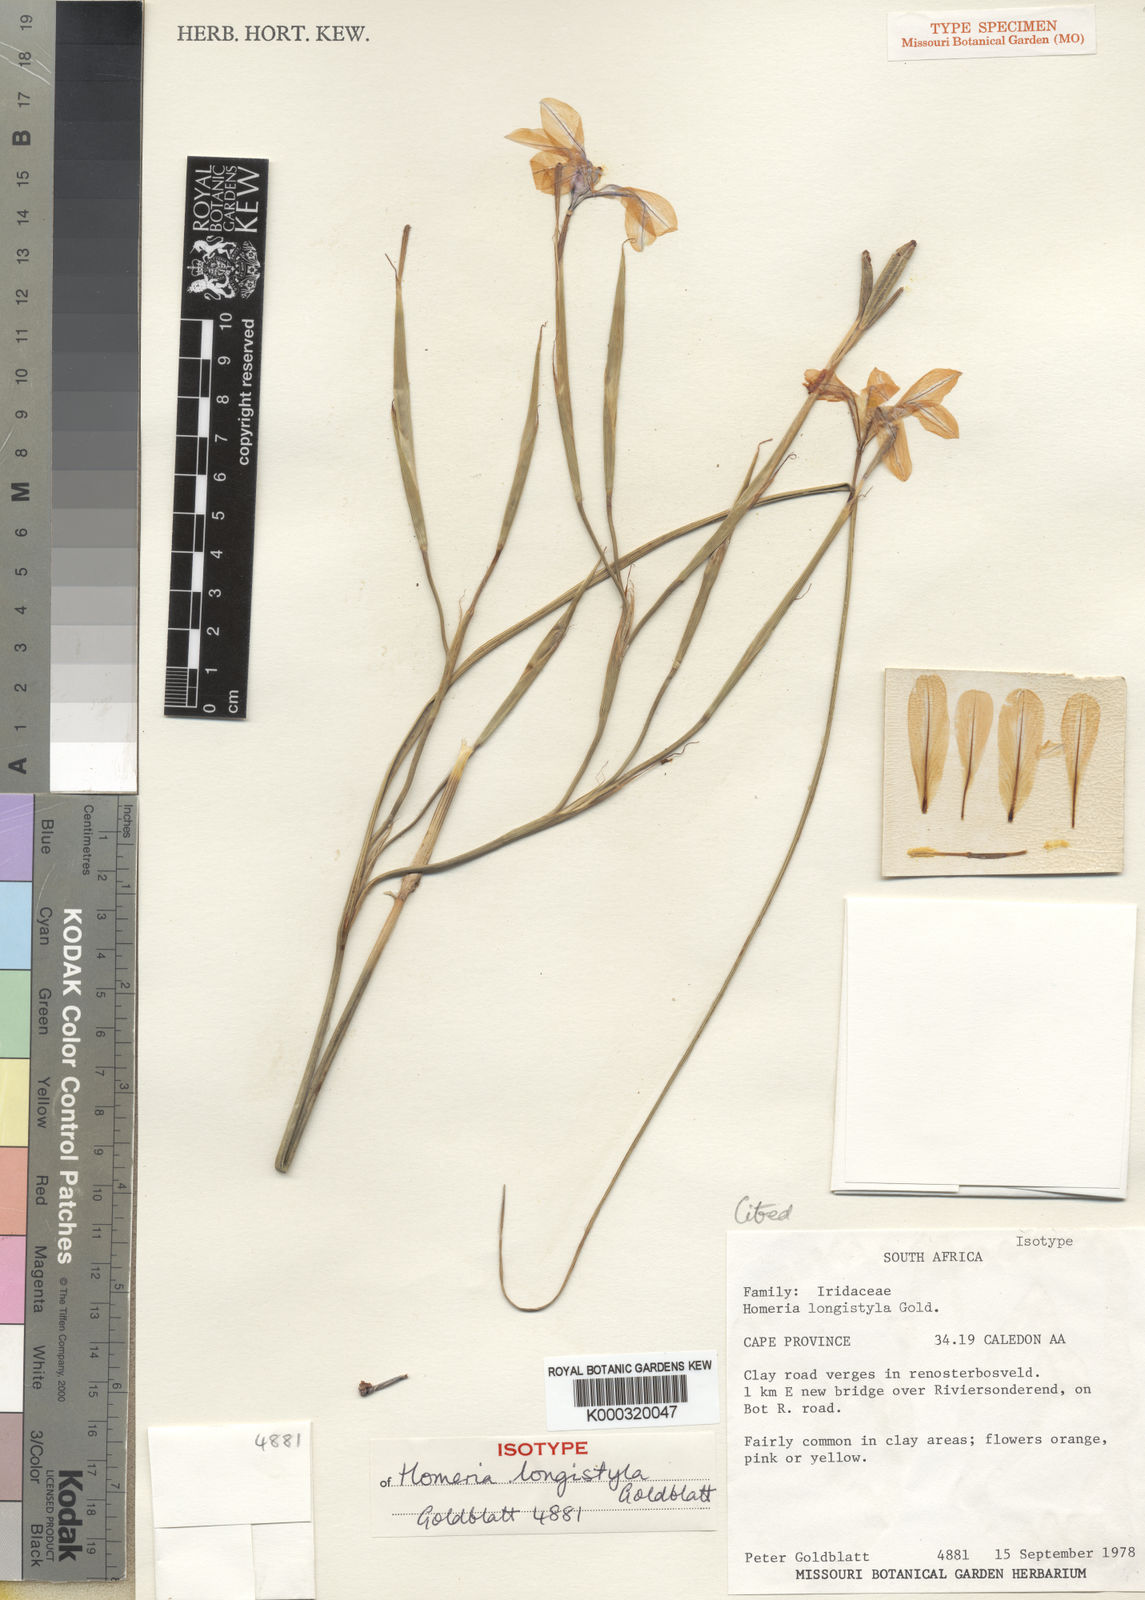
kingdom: Plantae
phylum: Tracheophyta
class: Liliopsida
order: Asparagales
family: Iridaceae
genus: Moraea
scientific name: Moraea longistyla
